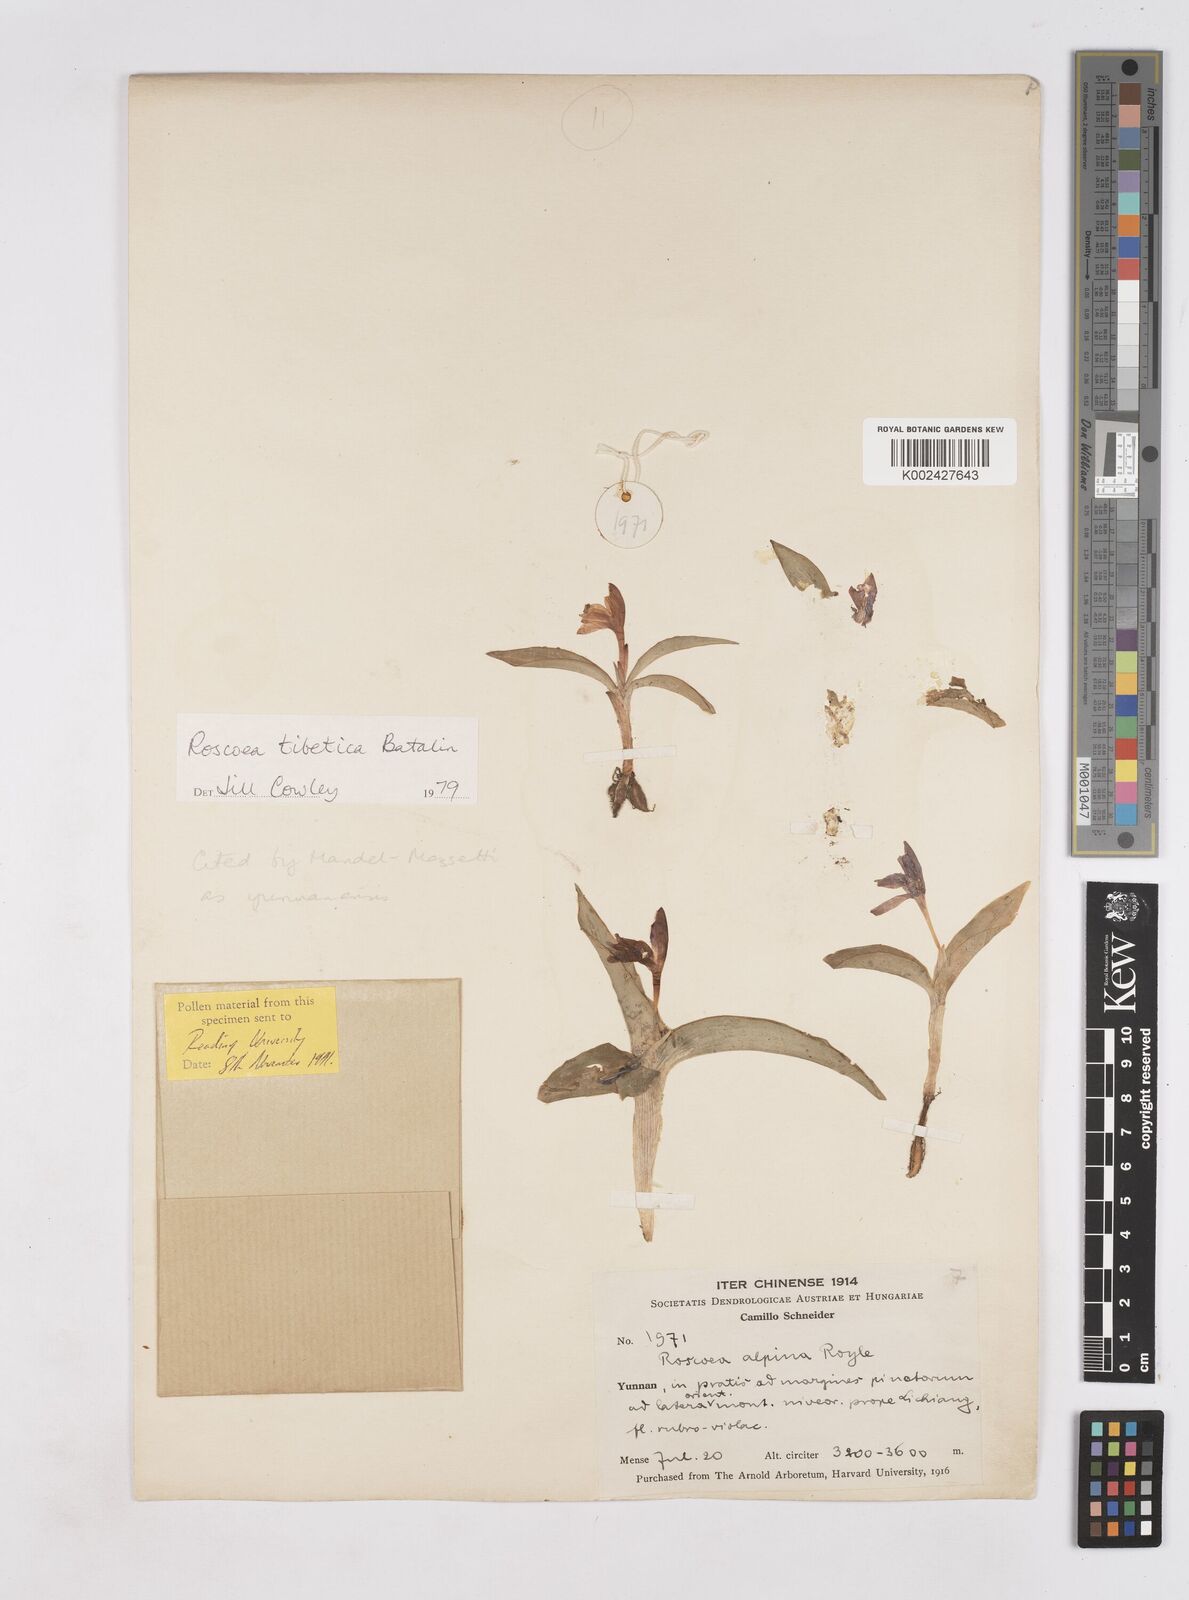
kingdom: Plantae
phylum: Tracheophyta
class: Liliopsida
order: Zingiberales
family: Zingiberaceae
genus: Roscoea
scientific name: Roscoea tibetica
